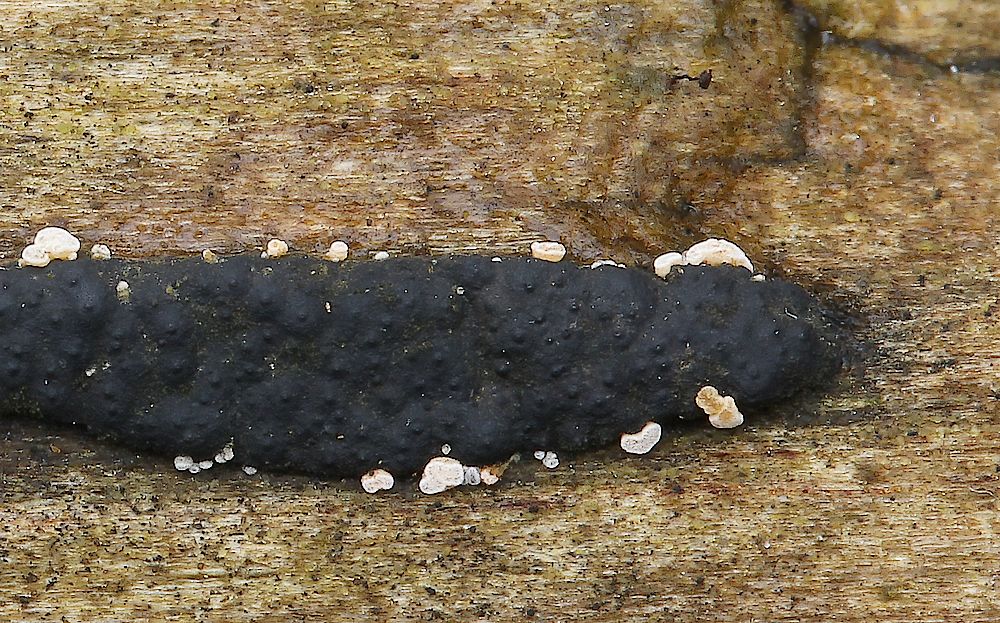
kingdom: Fungi
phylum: Ascomycota
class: Leotiomycetes
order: Helotiales
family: Hyaloscyphaceae
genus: Polydesmia
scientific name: Polydesmia pruinosa
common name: dunskive
